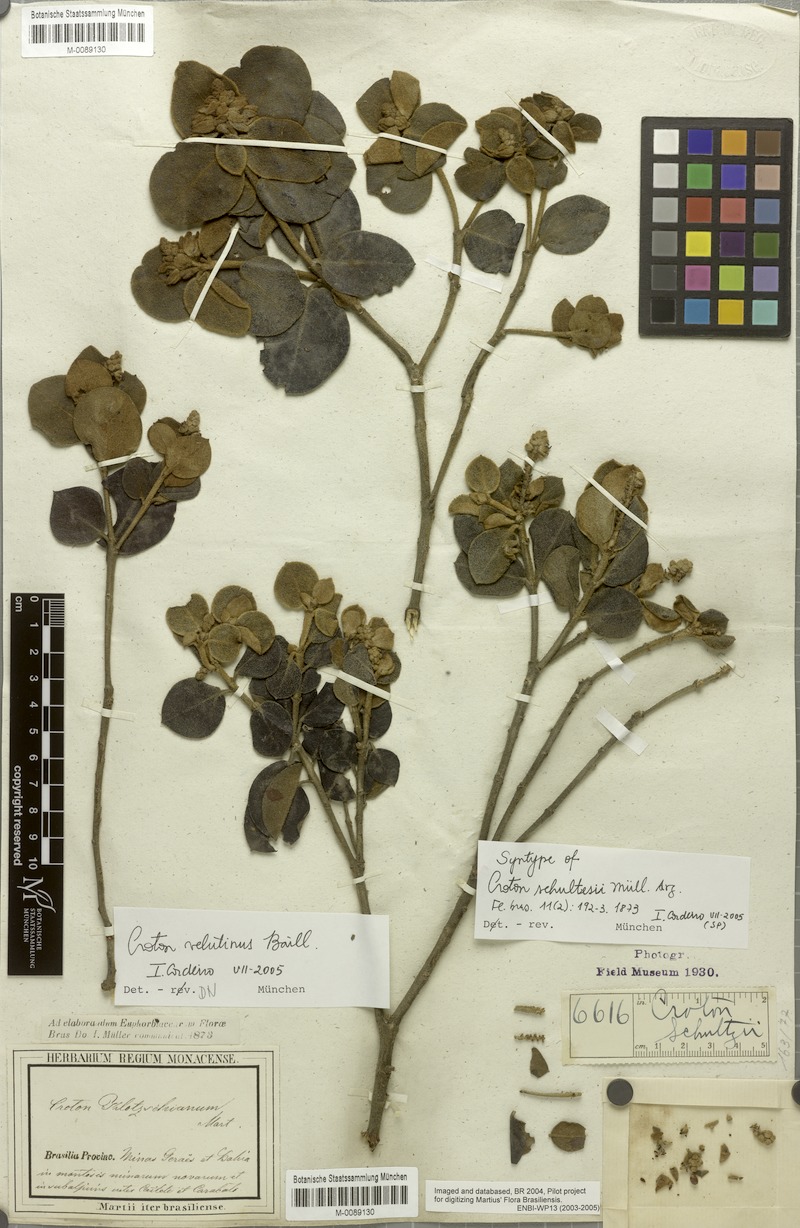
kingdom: Plantae
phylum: Tracheophyta
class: Magnoliopsida
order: Malpighiales
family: Euphorbiaceae
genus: Croton
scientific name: Croton velutinus
